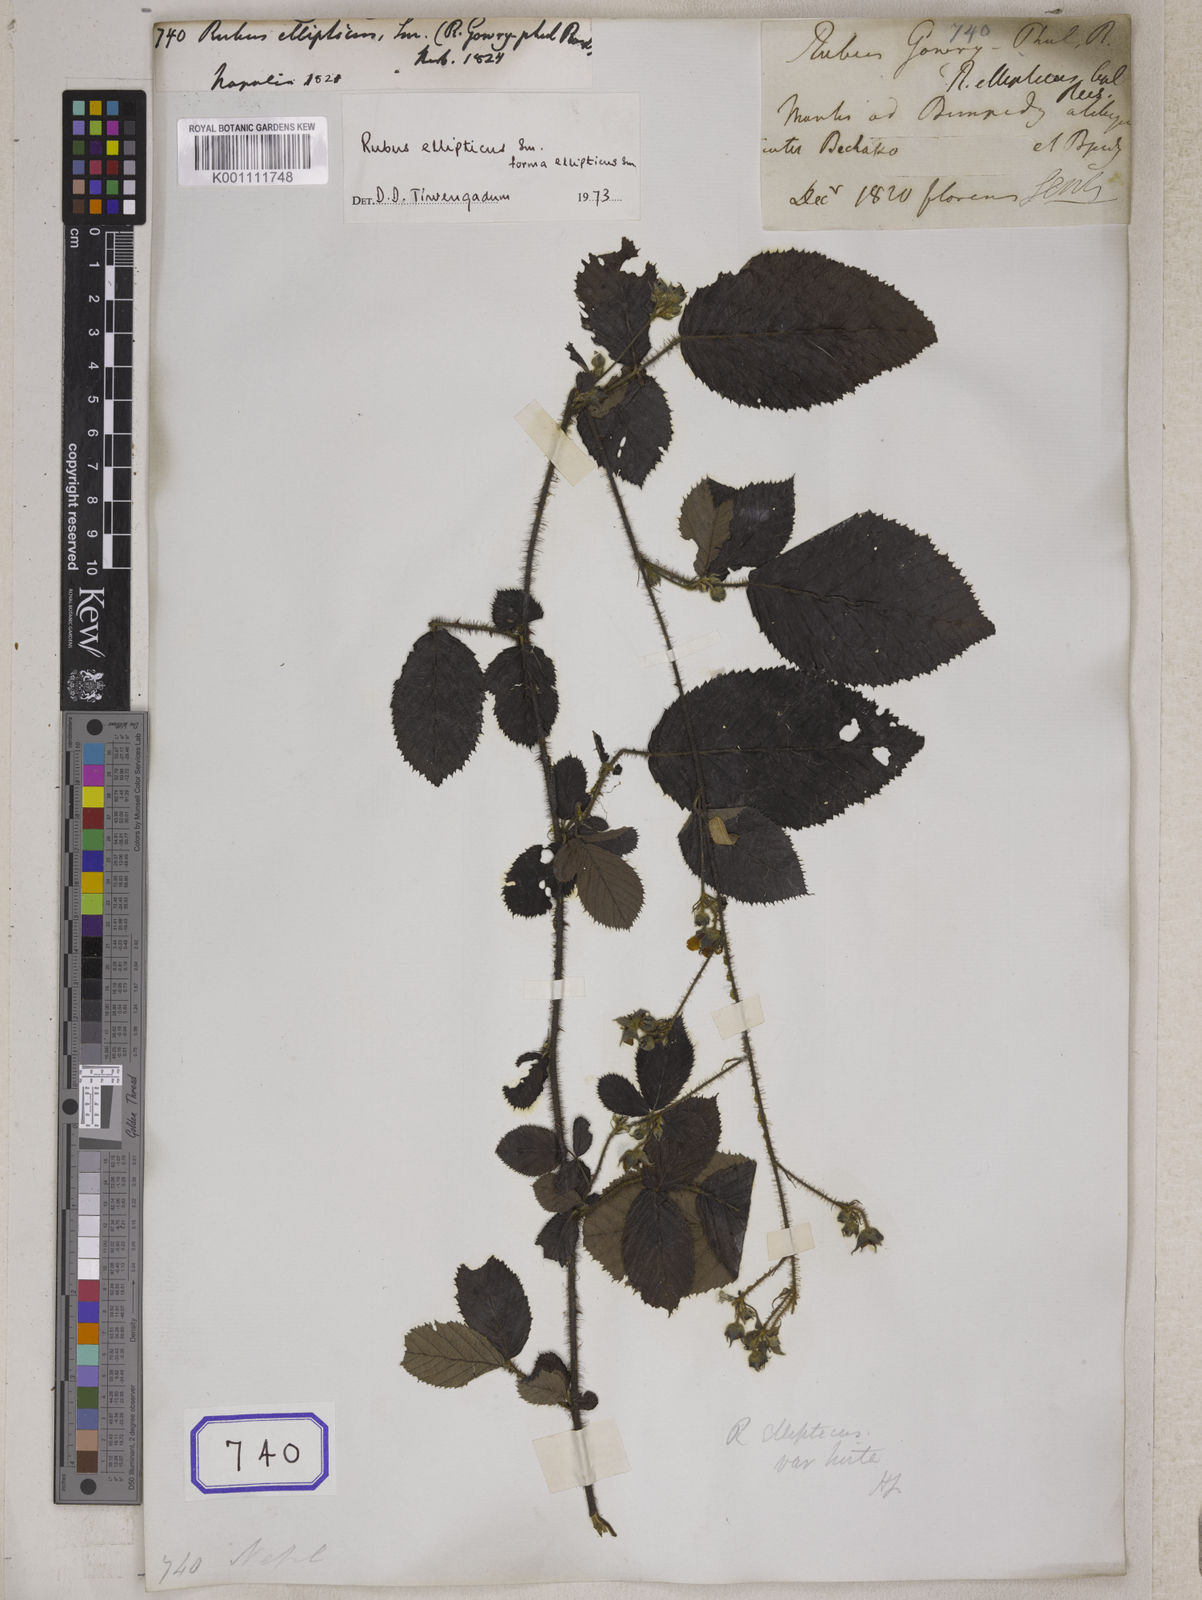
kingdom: Plantae
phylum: Tracheophyta
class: Magnoliopsida
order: Rosales
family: Rosaceae
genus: Rubus
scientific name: Rubus ellipticus
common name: Cheeseberry
